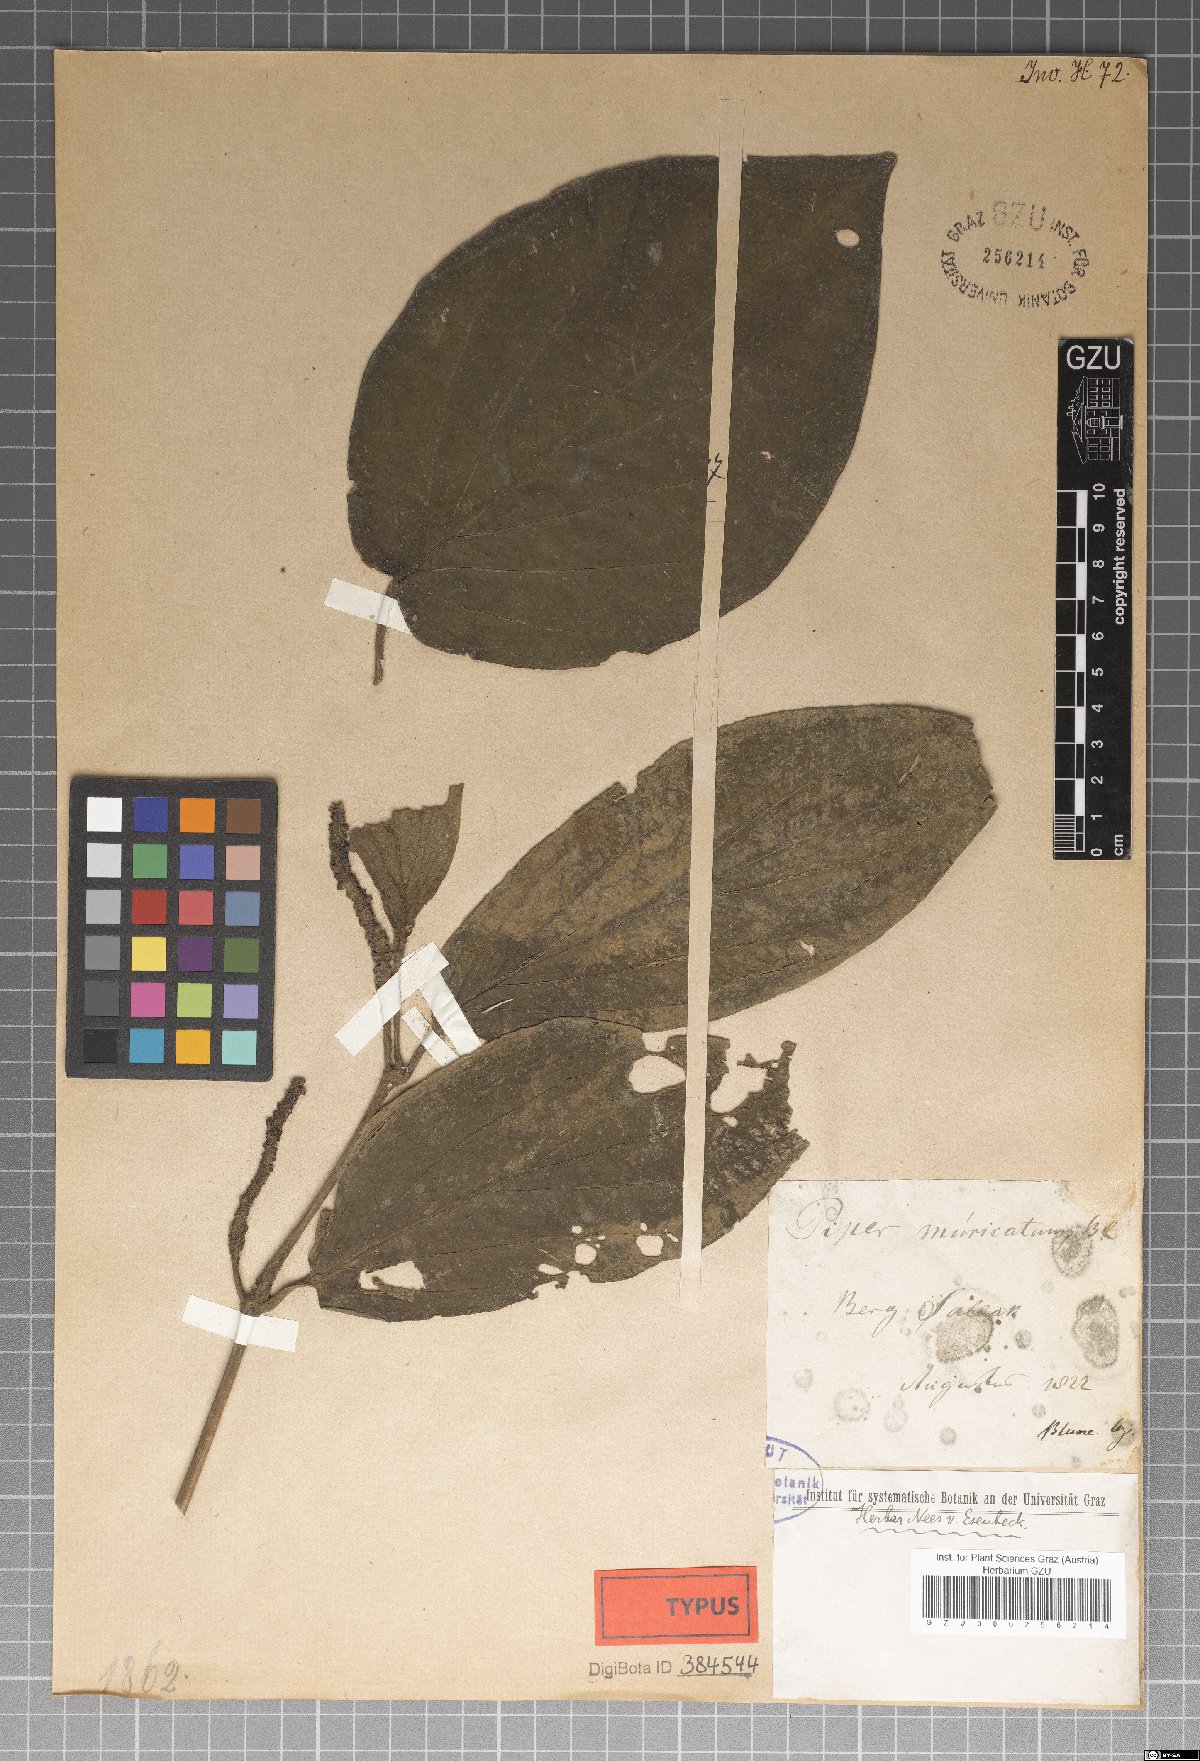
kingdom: Plantae
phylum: Tracheophyta
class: Magnoliopsida
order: Piperales
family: Piperaceae
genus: Piper
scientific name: Piper muricatum
